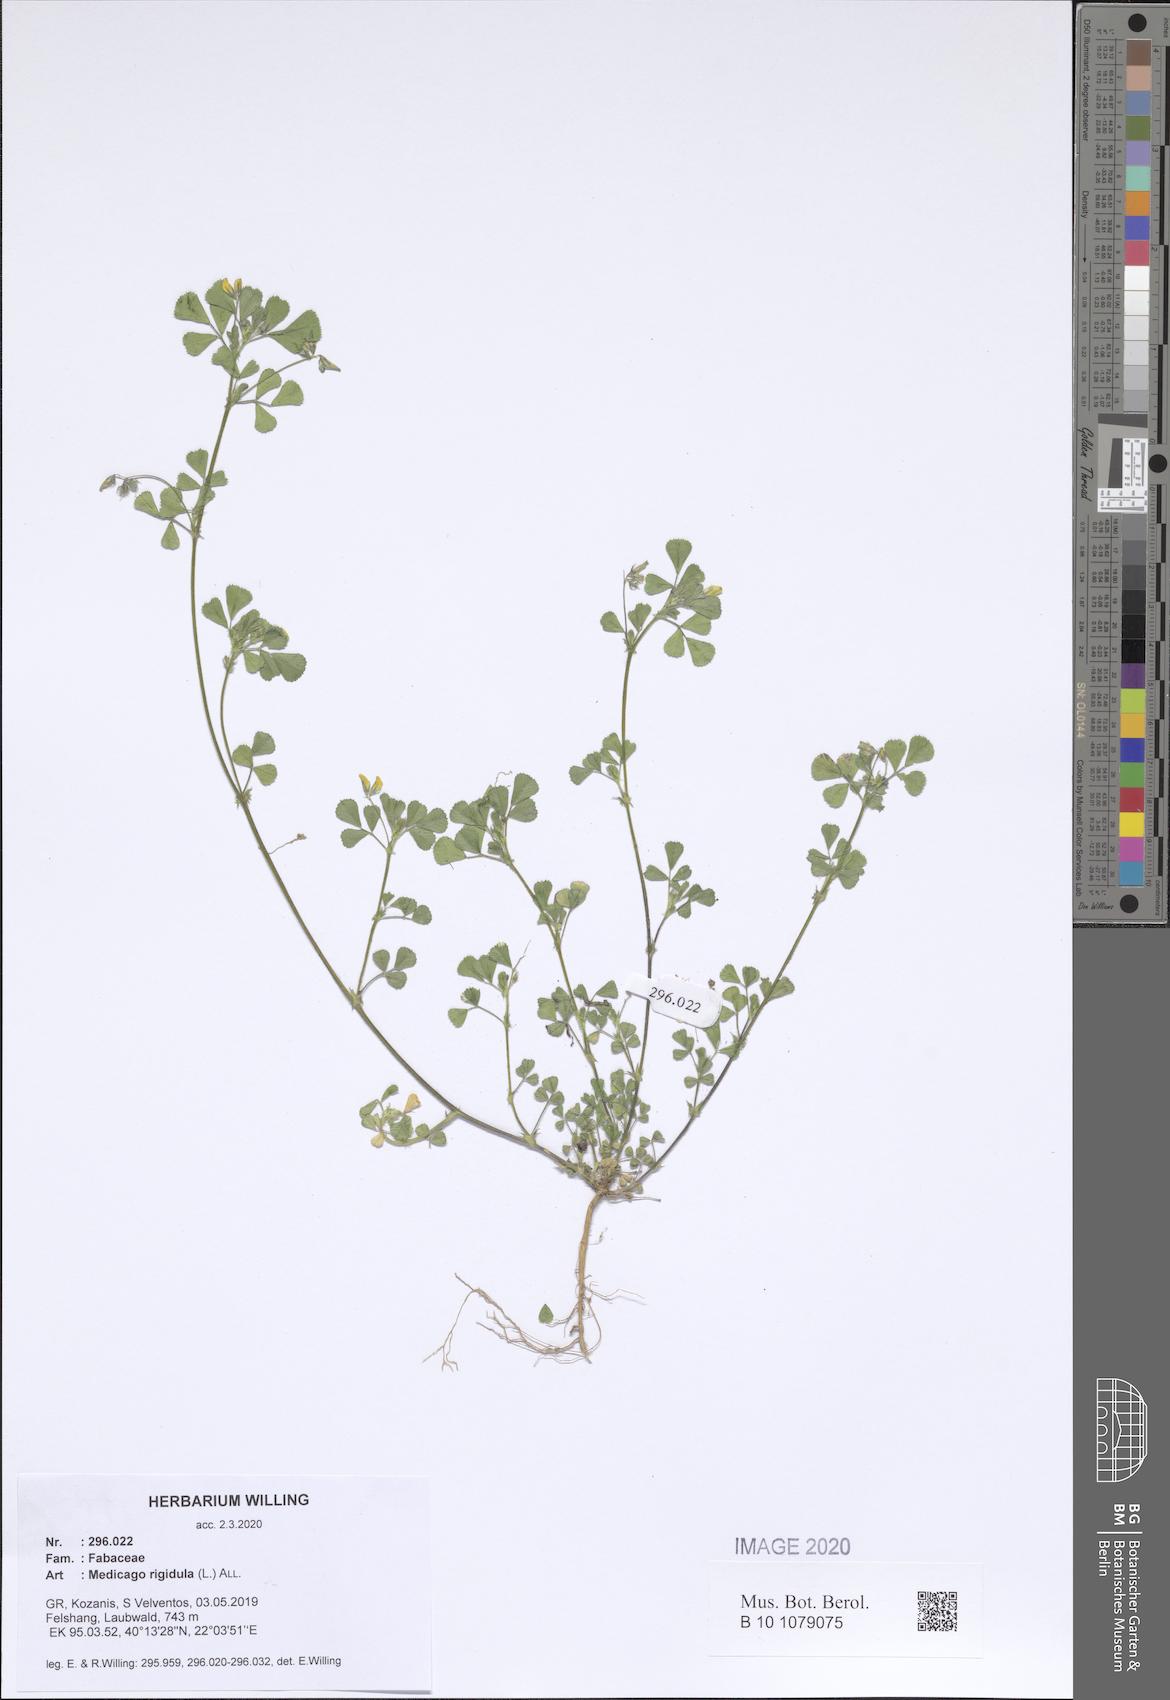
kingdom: Plantae
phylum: Tracheophyta
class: Magnoliopsida
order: Fabales
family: Fabaceae
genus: Medicago
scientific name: Medicago rigidula
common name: Tifton medic
